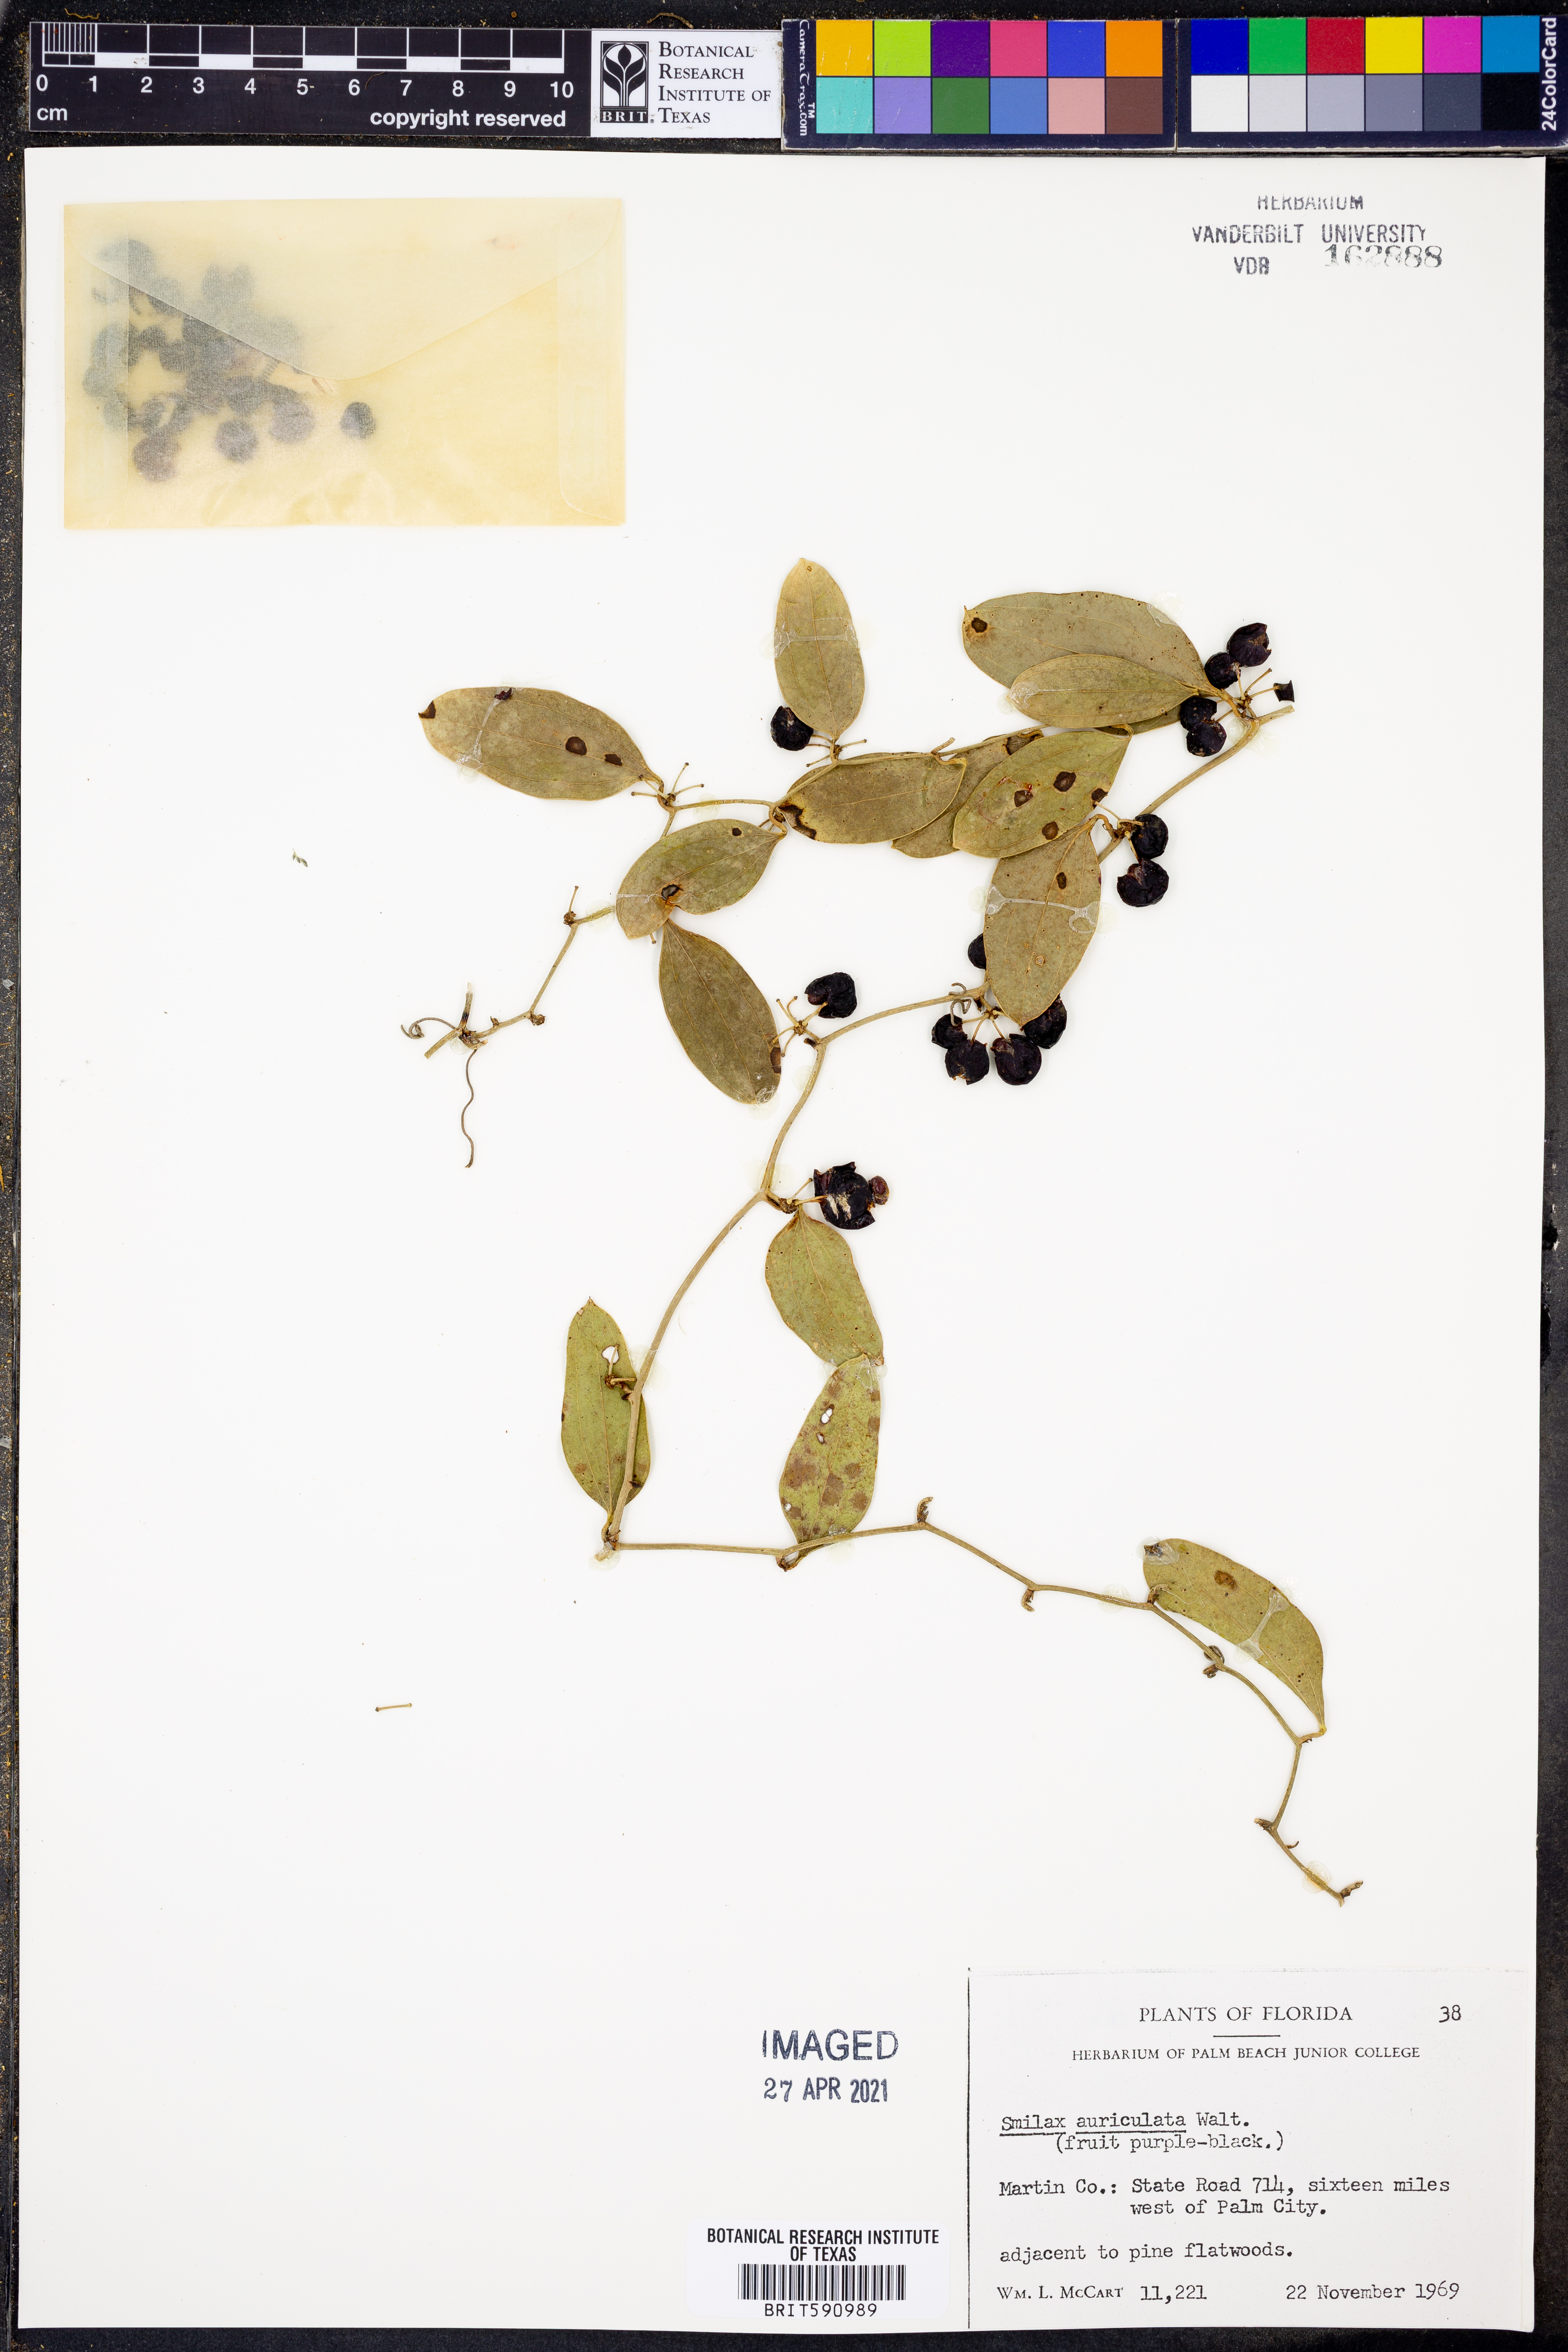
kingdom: Plantae
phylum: Tracheophyta
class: Liliopsida
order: Liliales
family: Smilacaceae
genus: Smilax
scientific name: Smilax auriculata
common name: Wild bamboo
